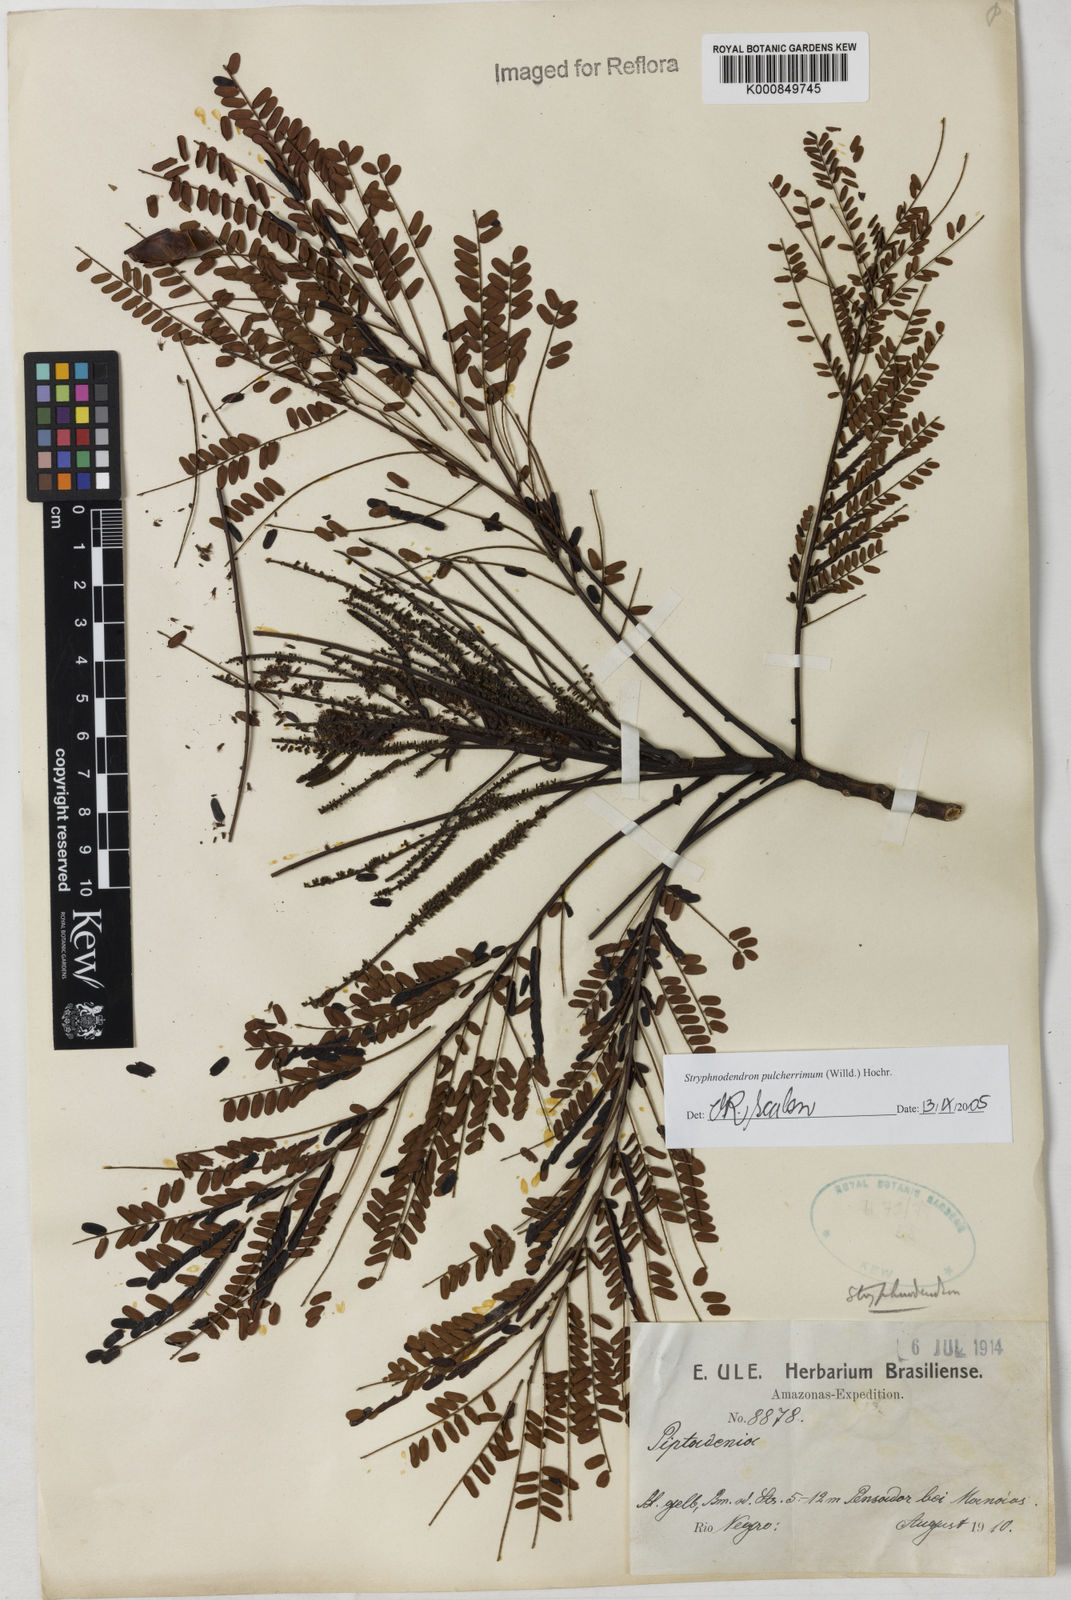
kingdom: Plantae
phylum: Tracheophyta
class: Magnoliopsida
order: Fabales
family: Fabaceae
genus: Stryphnodendron
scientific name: Stryphnodendron pulcherrimum
